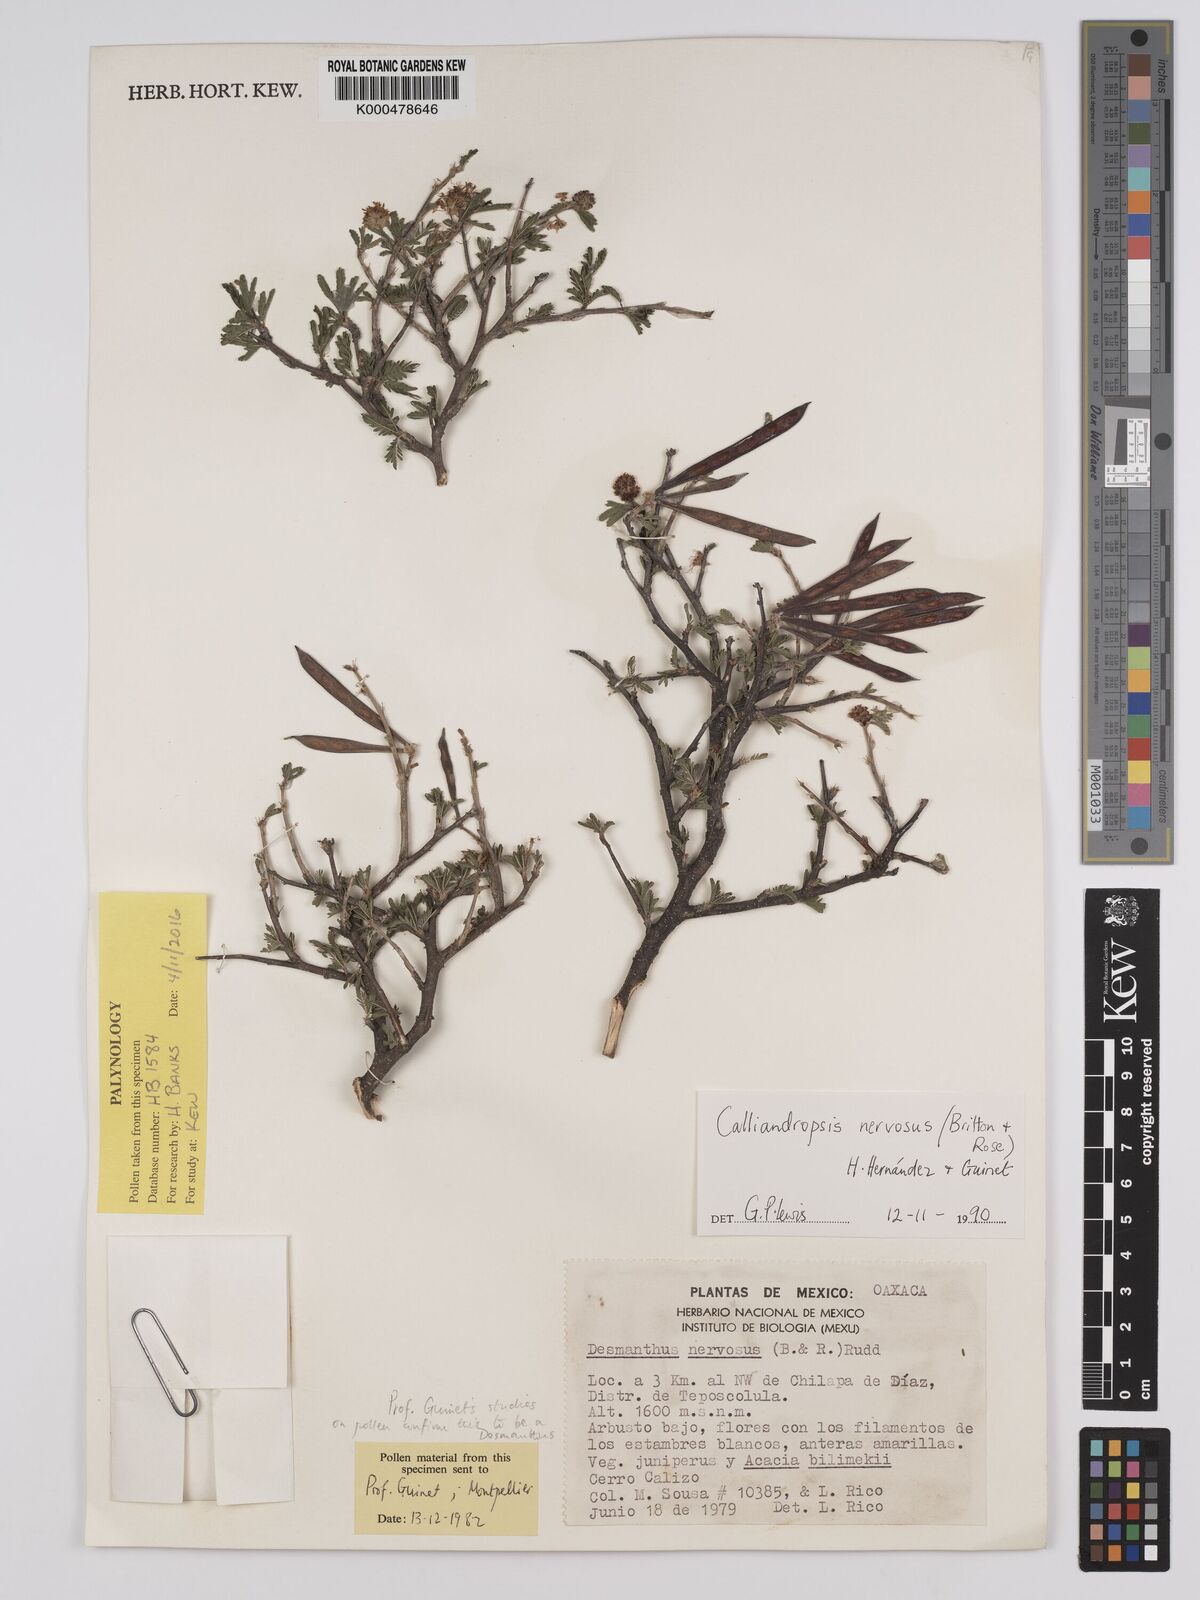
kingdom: Plantae
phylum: Tracheophyta
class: Magnoliopsida
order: Fabales
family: Fabaceae
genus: Calliandropsis
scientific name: Calliandropsis nervosa
